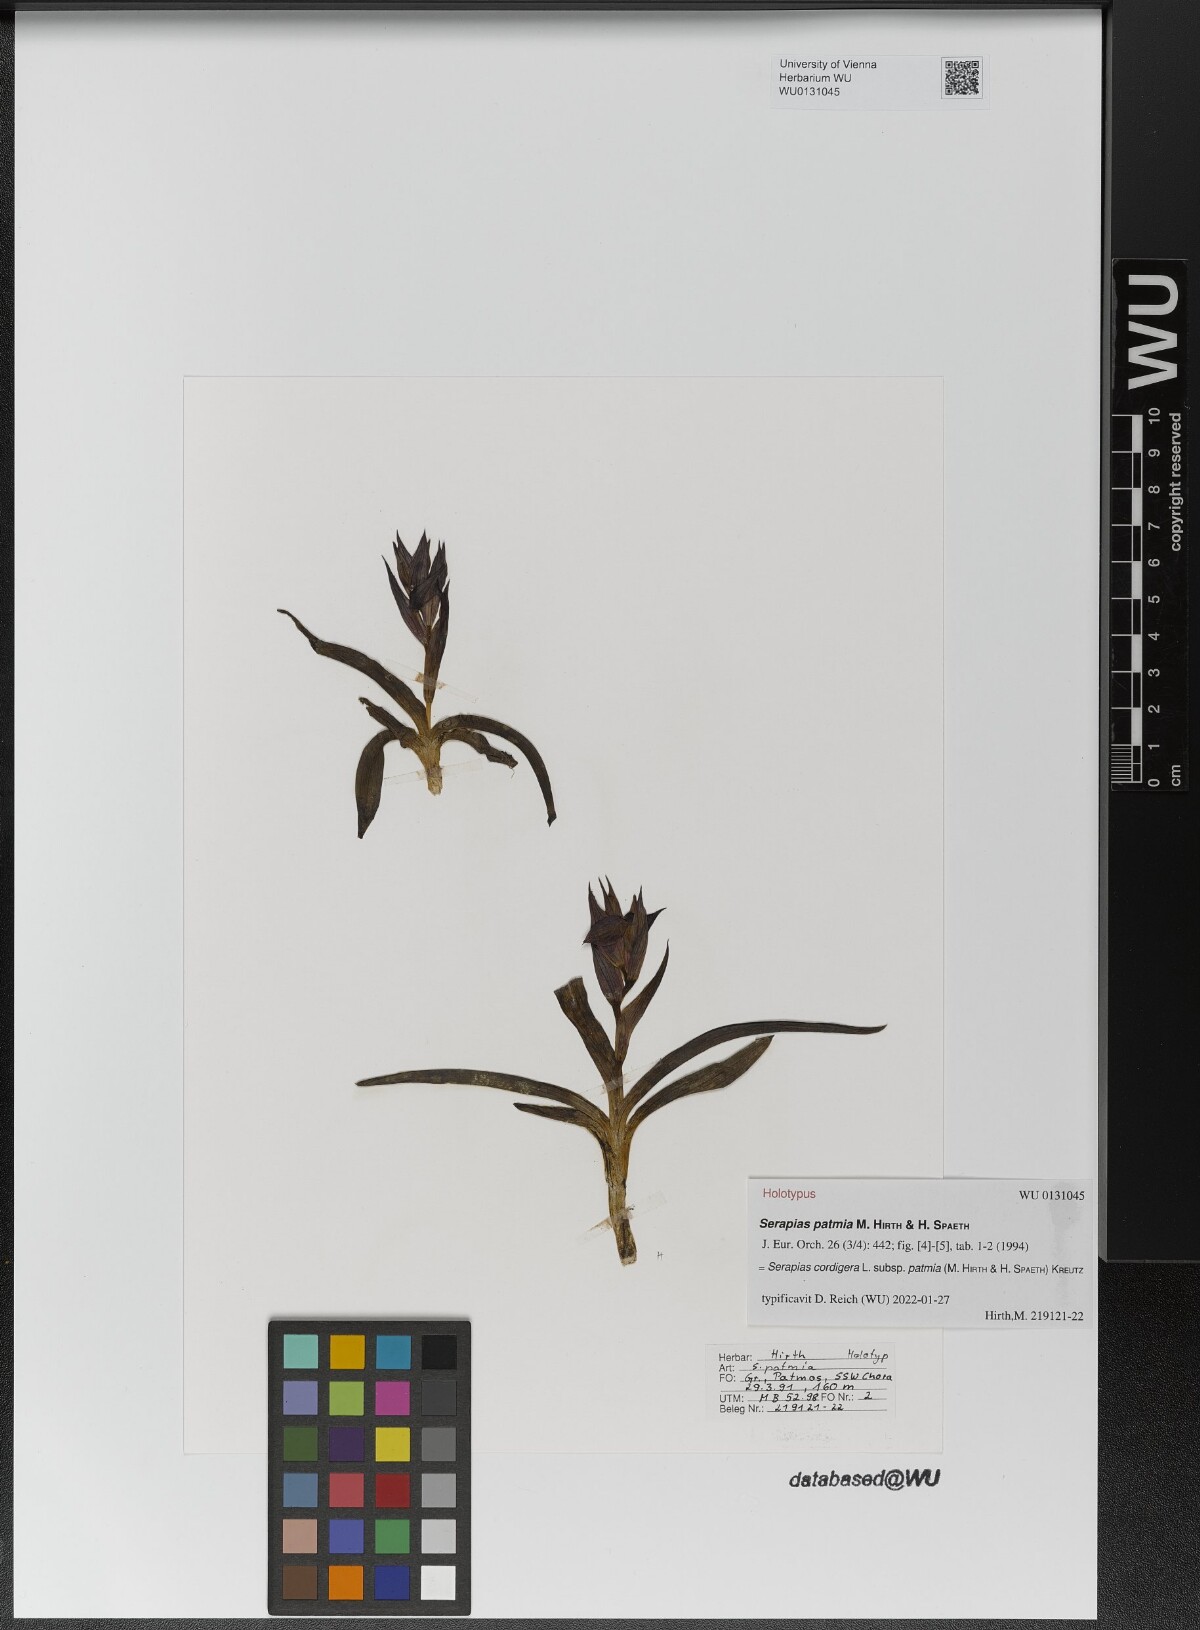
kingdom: Plantae
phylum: Tracheophyta
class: Liliopsida
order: Asparagales
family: Orchidaceae
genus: Serapias
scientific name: Serapias orientalis
